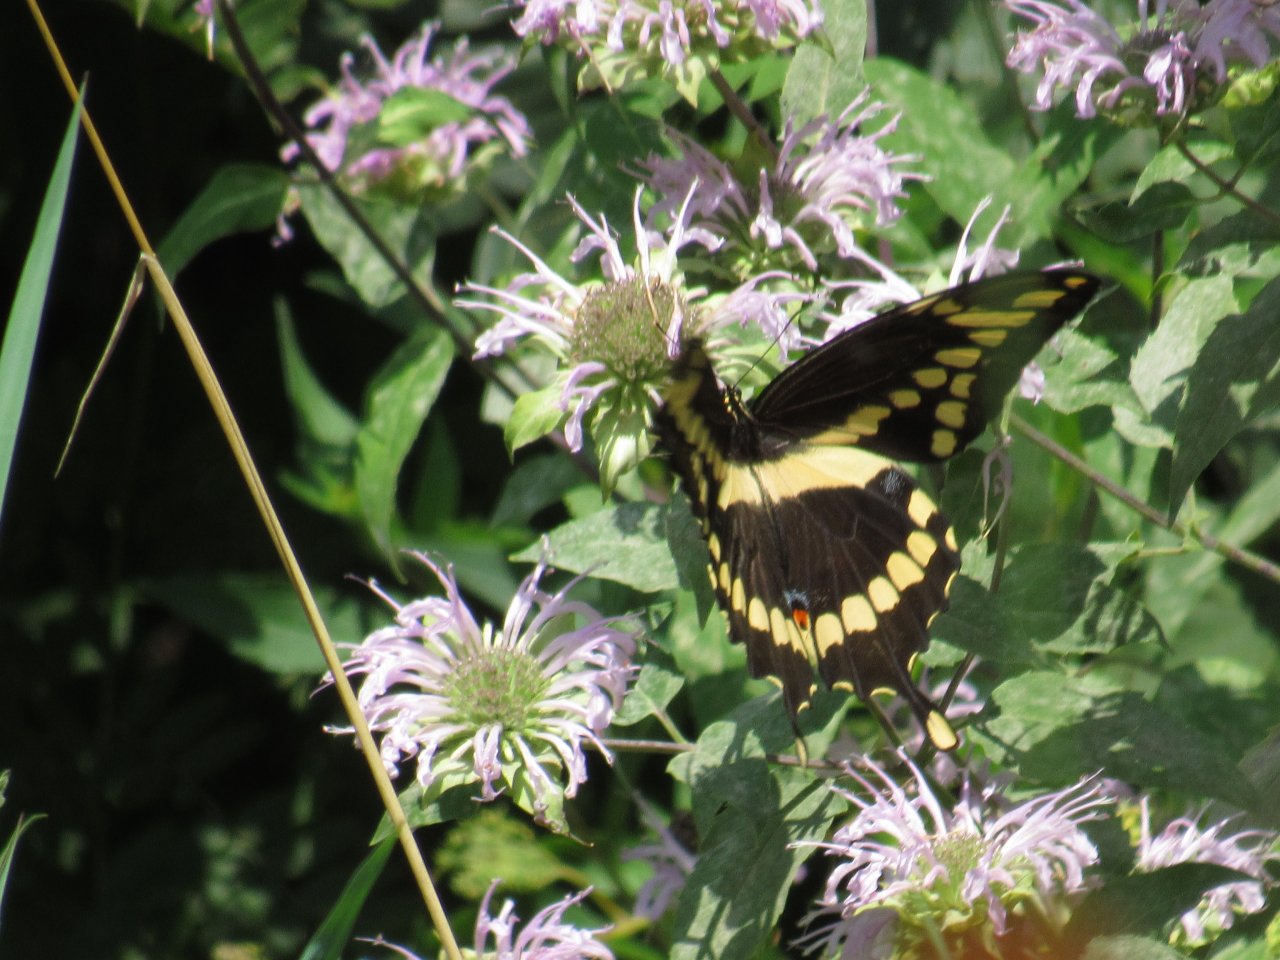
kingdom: Animalia
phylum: Arthropoda
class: Insecta
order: Lepidoptera
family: Papilionidae
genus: Papilio
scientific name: Papilio cresphontes
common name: Eastern Giant Swallowtail
